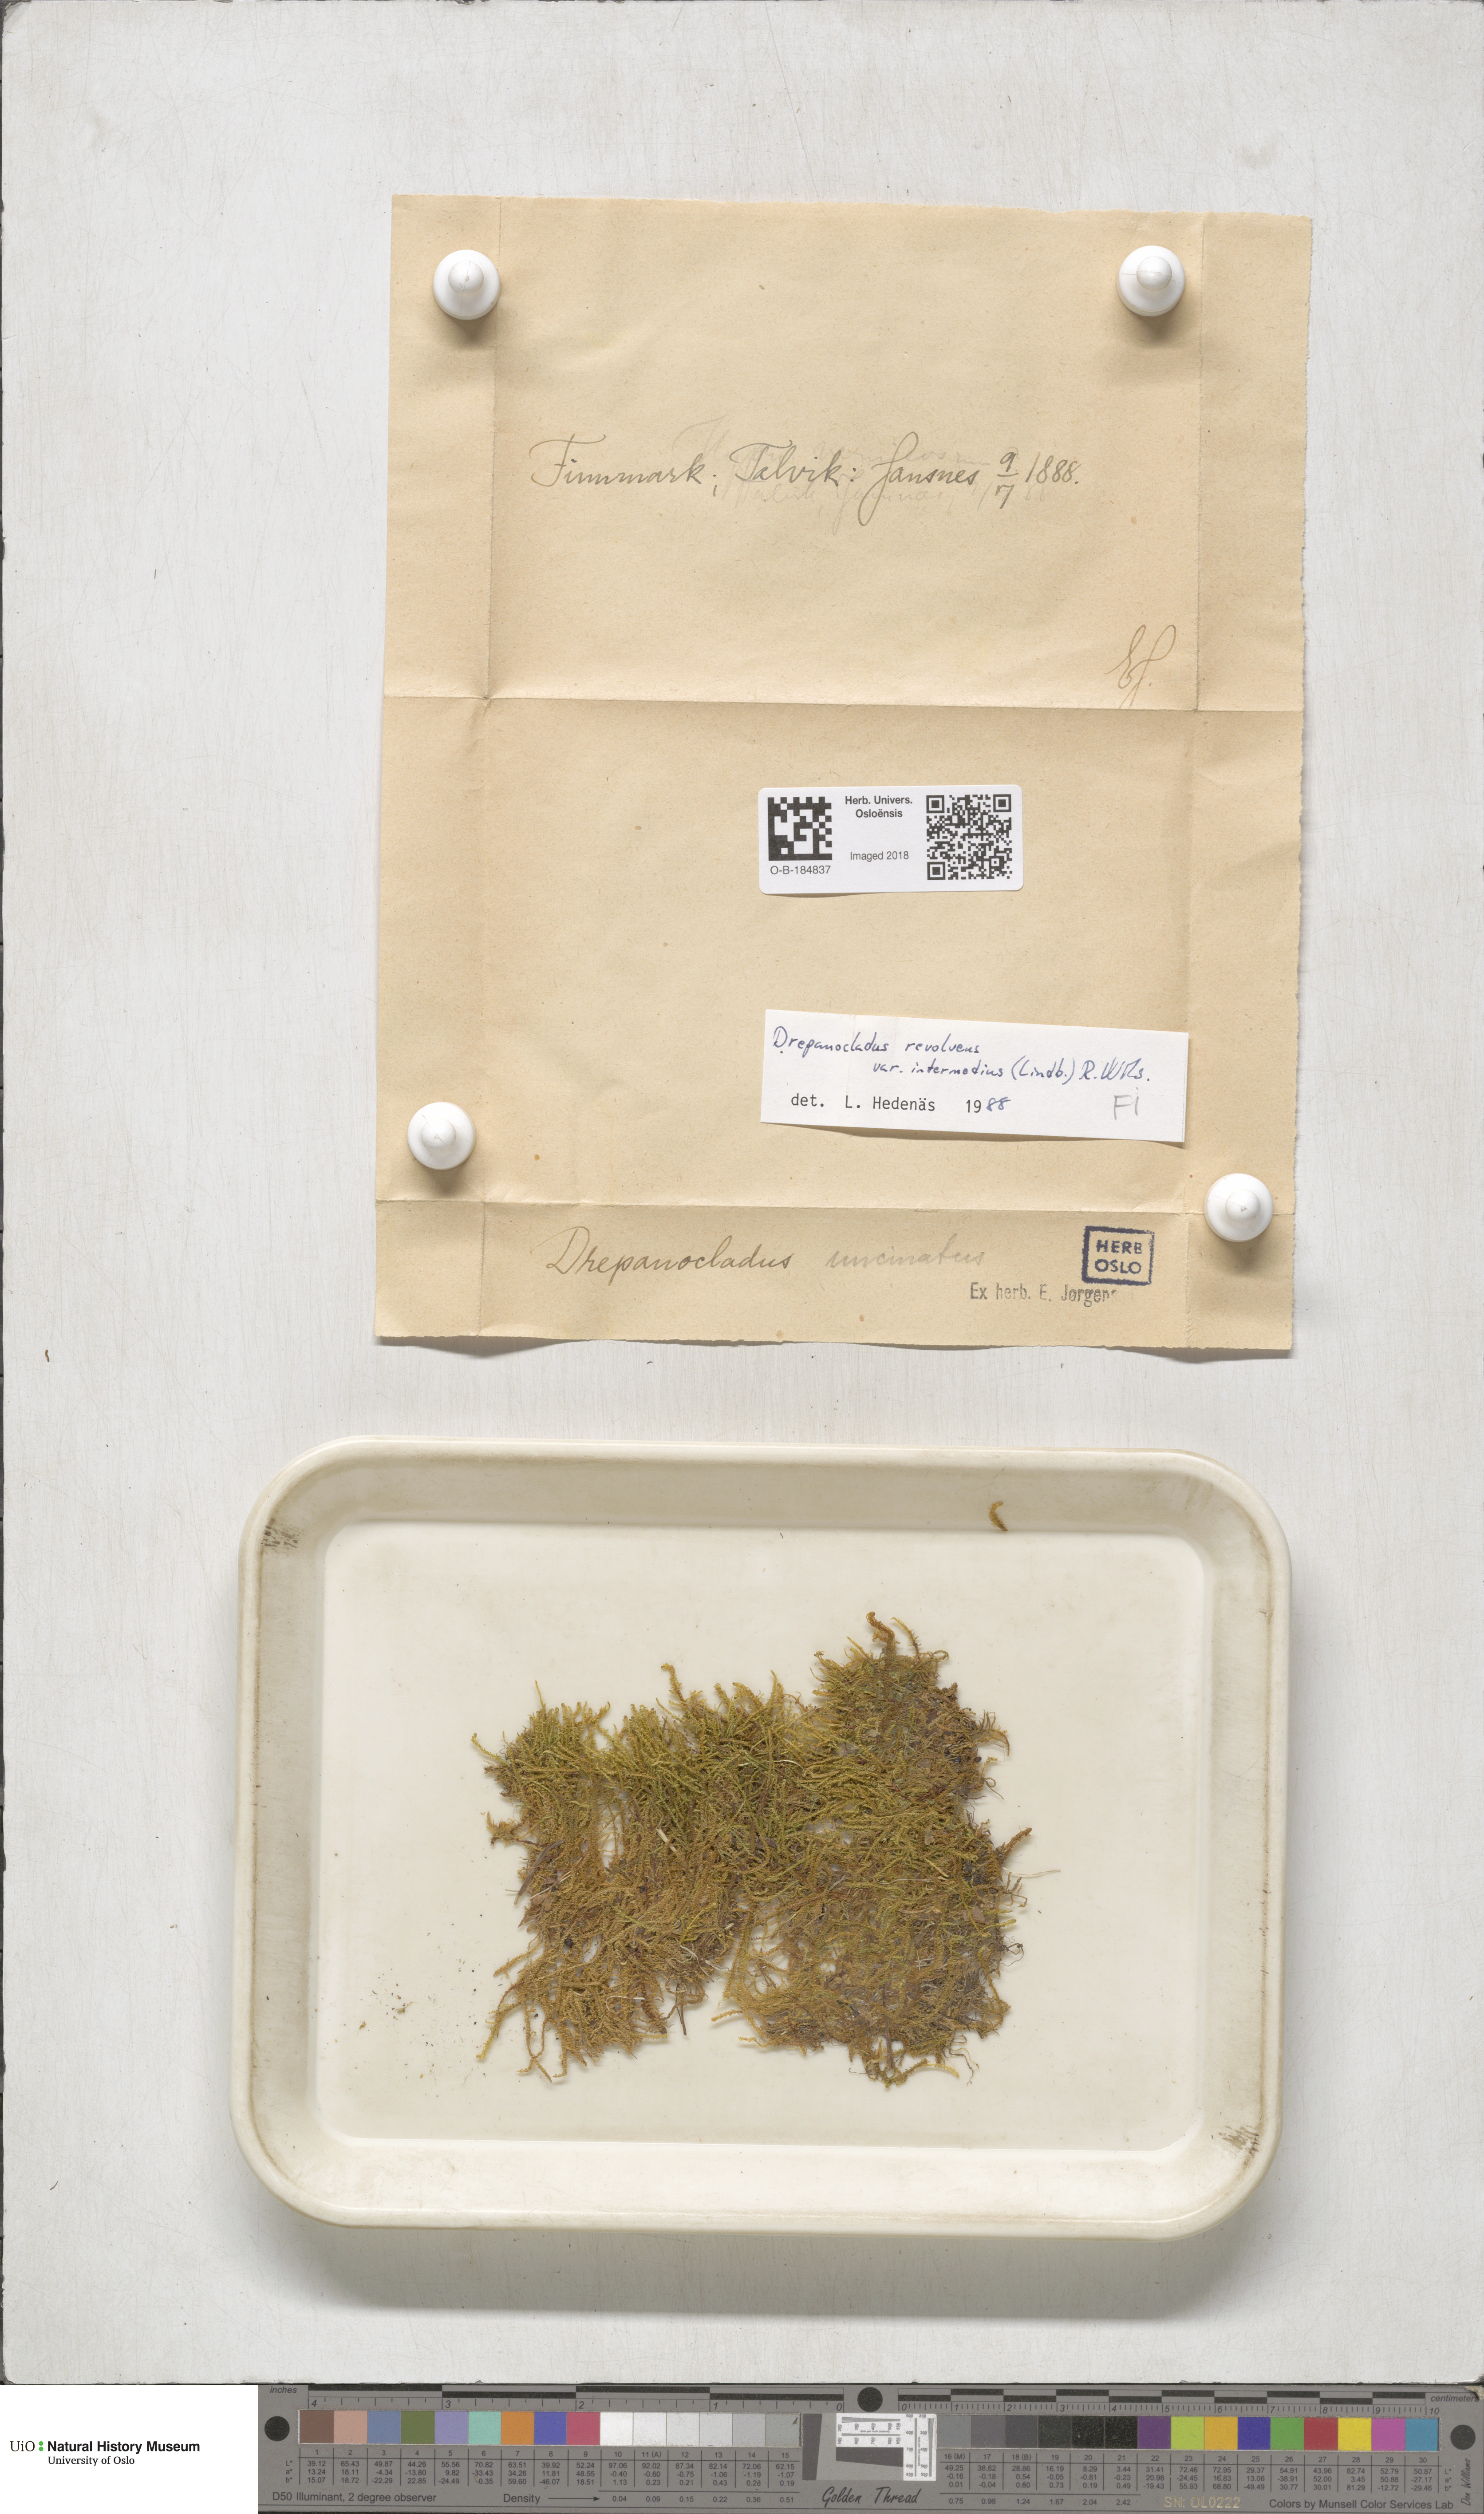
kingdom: Plantae
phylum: Bryophyta
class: Bryopsida
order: Hypnales
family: Scorpidiaceae
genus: Scorpidium
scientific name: Scorpidium cossonii
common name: Cosson's hook moss
